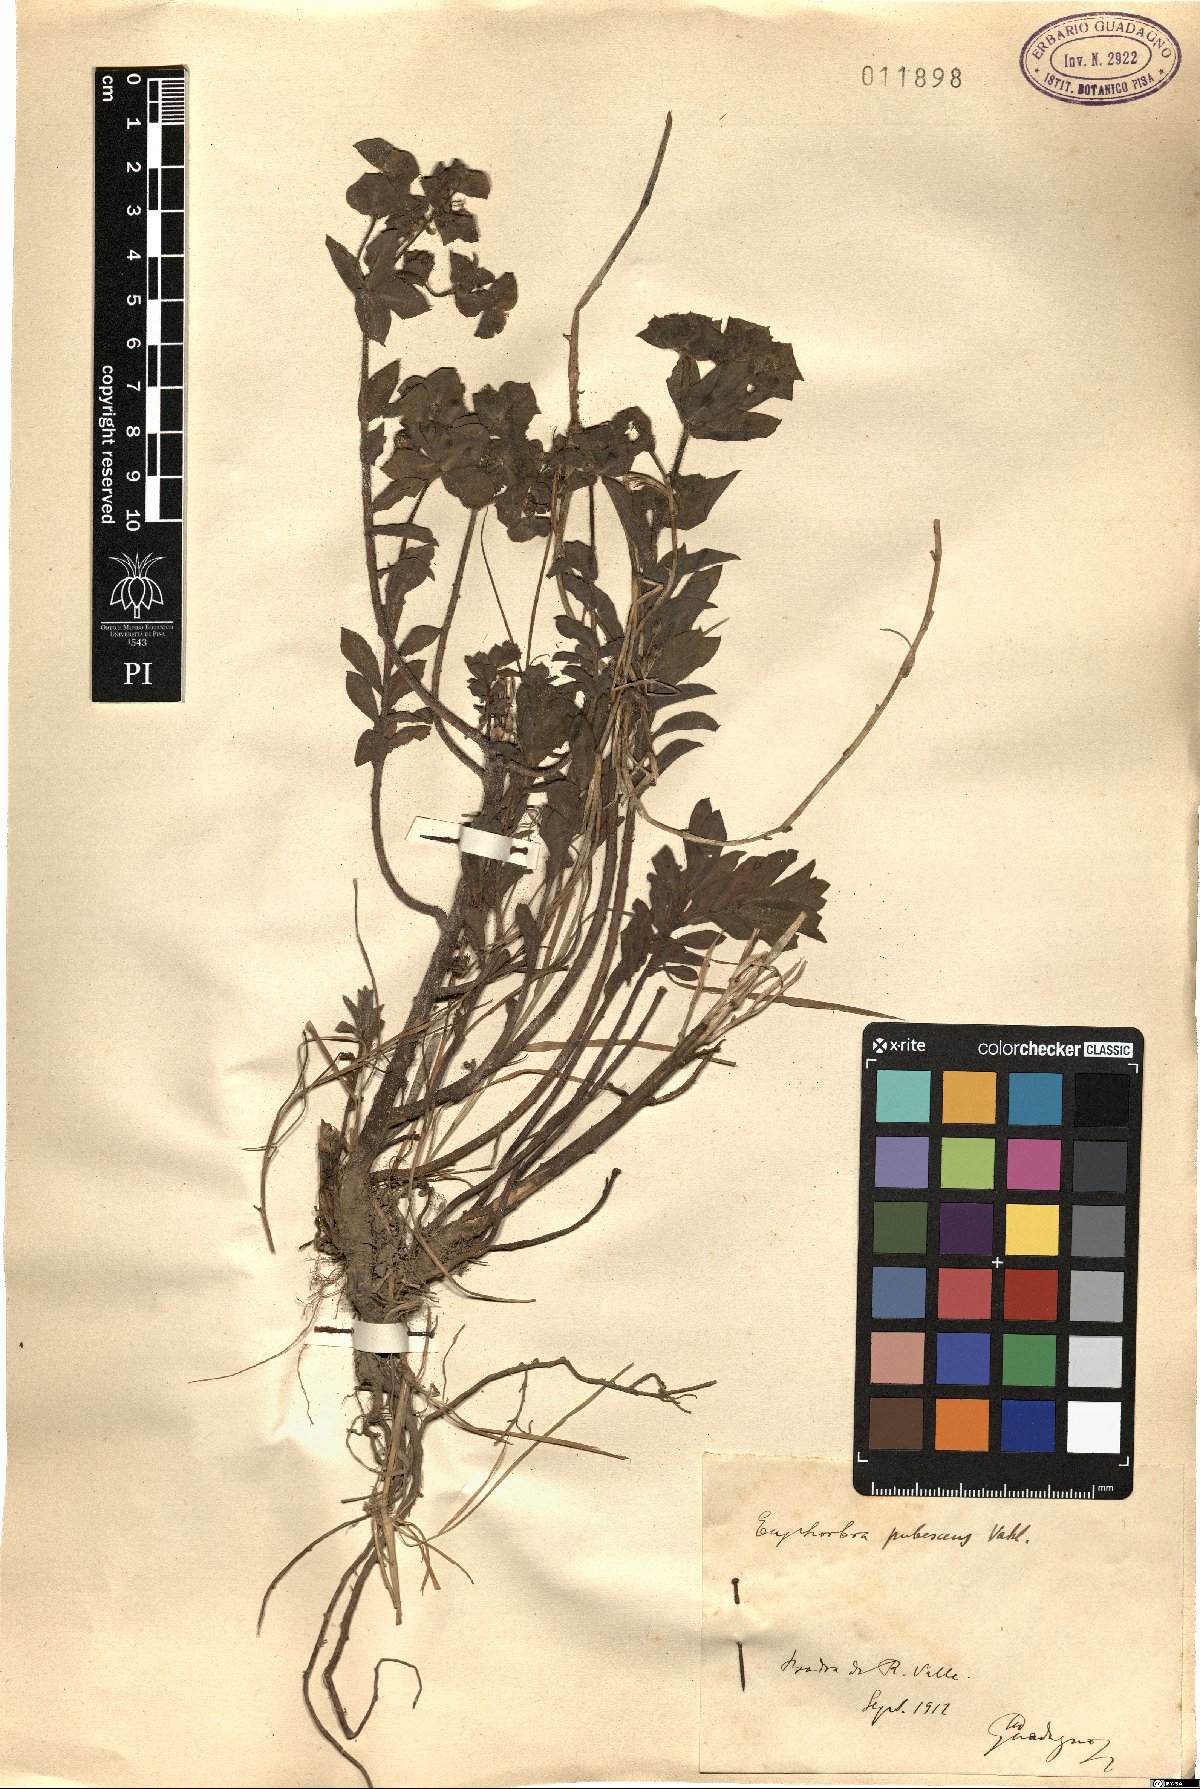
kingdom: Plantae
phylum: Tracheophyta
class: Magnoliopsida
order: Malpighiales
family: Euphorbiaceae
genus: Euphorbia
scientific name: Euphorbia hirsuta
